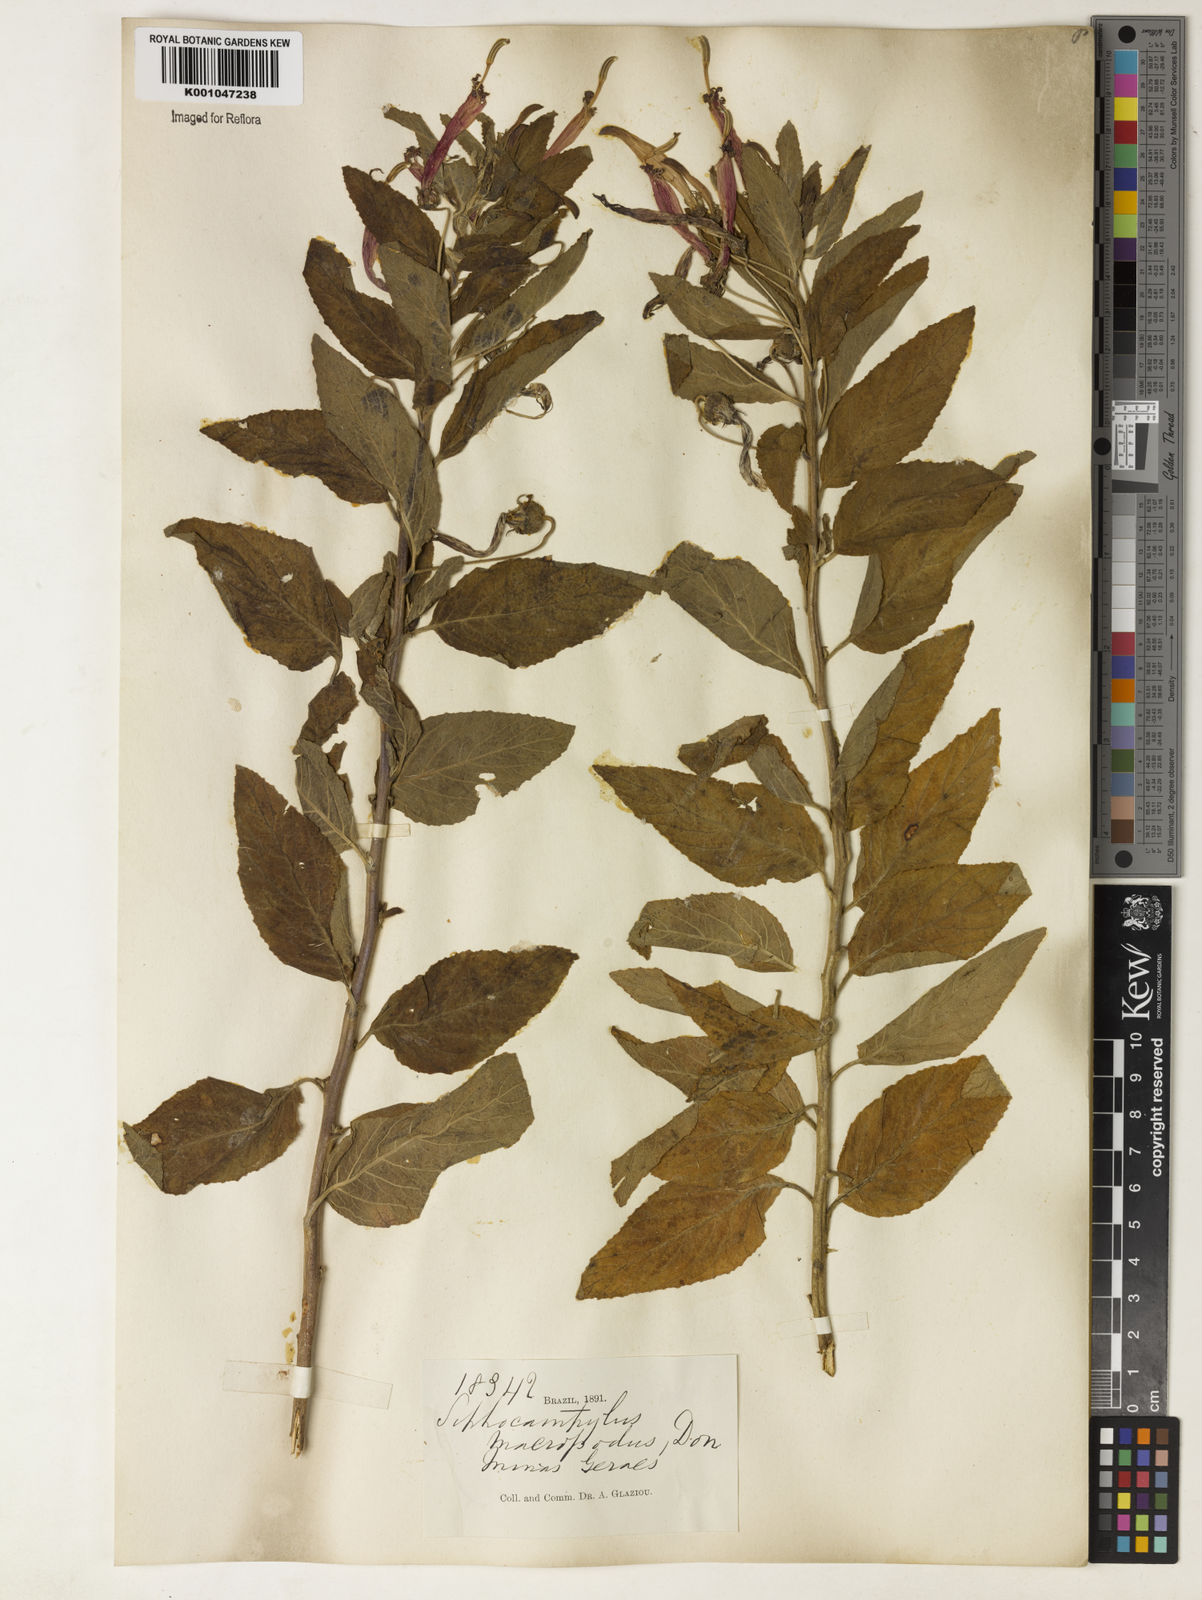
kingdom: Plantae
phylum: Tracheophyta
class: Magnoliopsida
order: Asterales
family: Campanulaceae
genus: Siphocampylus
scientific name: Siphocampylus macropodus
